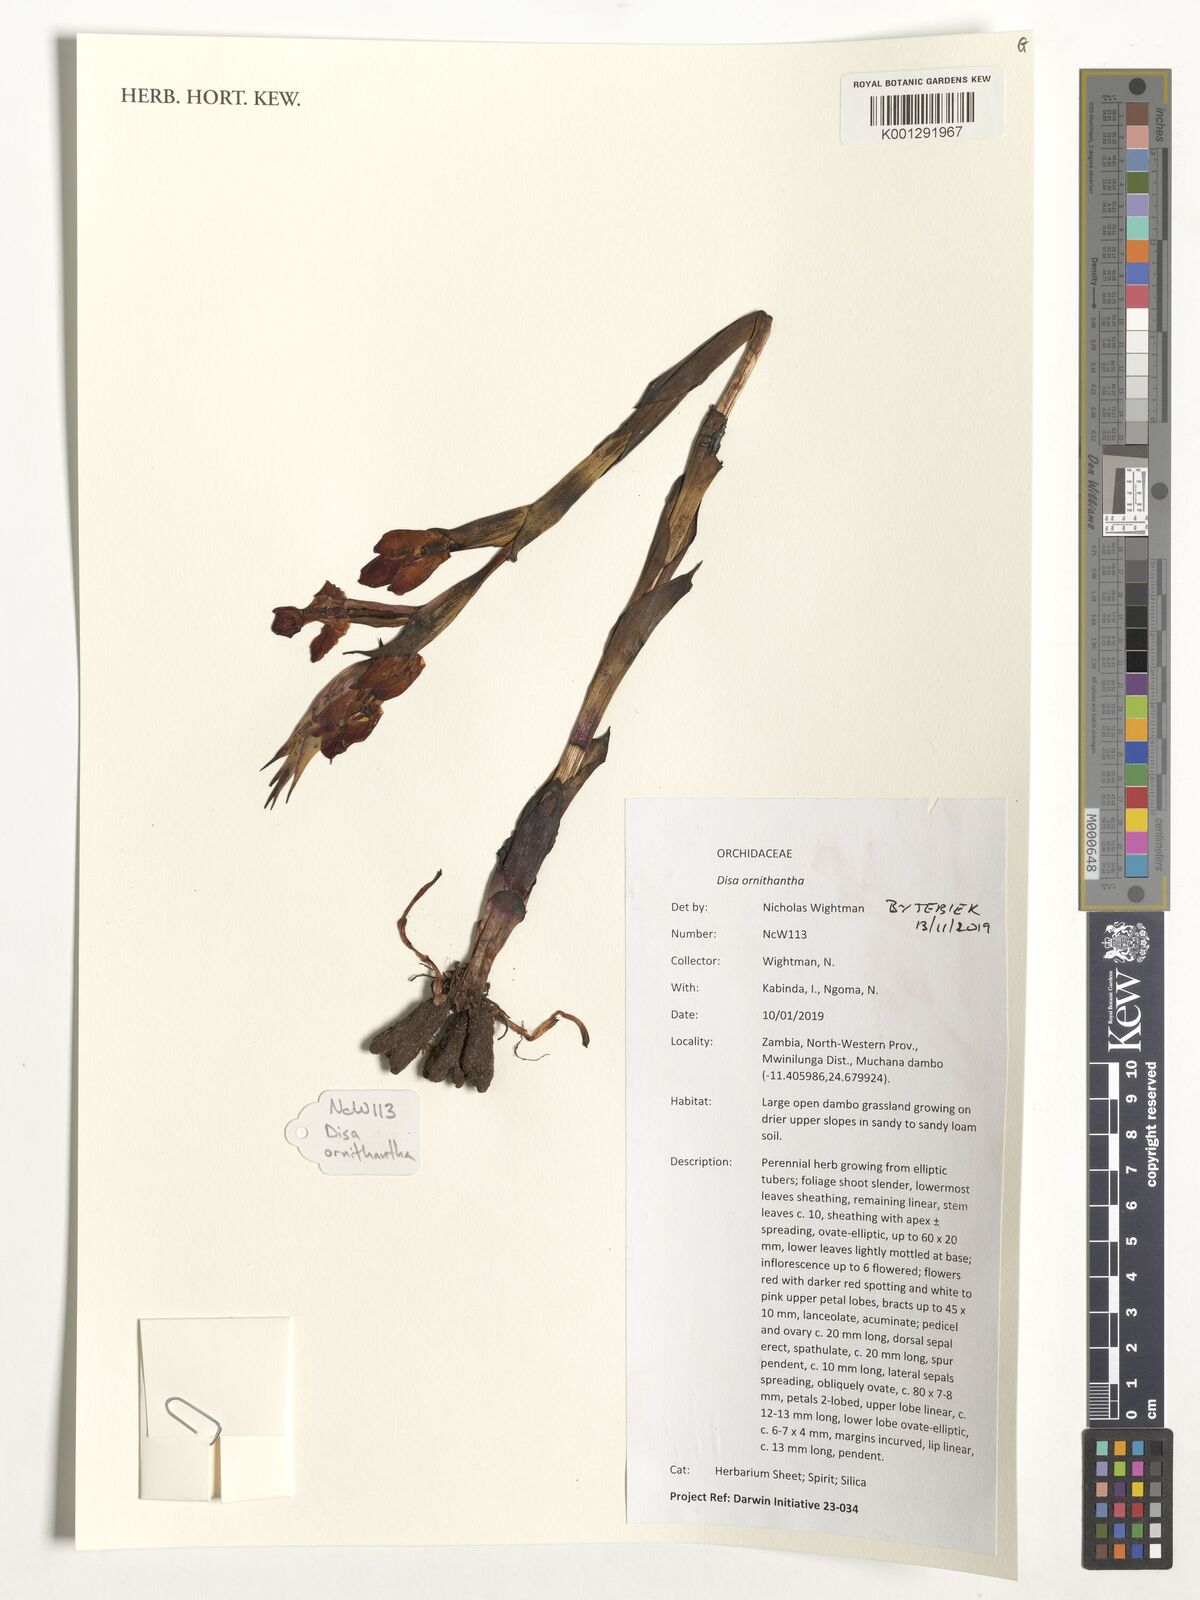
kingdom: Plantae
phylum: Tracheophyta
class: Liliopsida
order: Asparagales
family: Orchidaceae
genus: Disa
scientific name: Disa ornithantha
